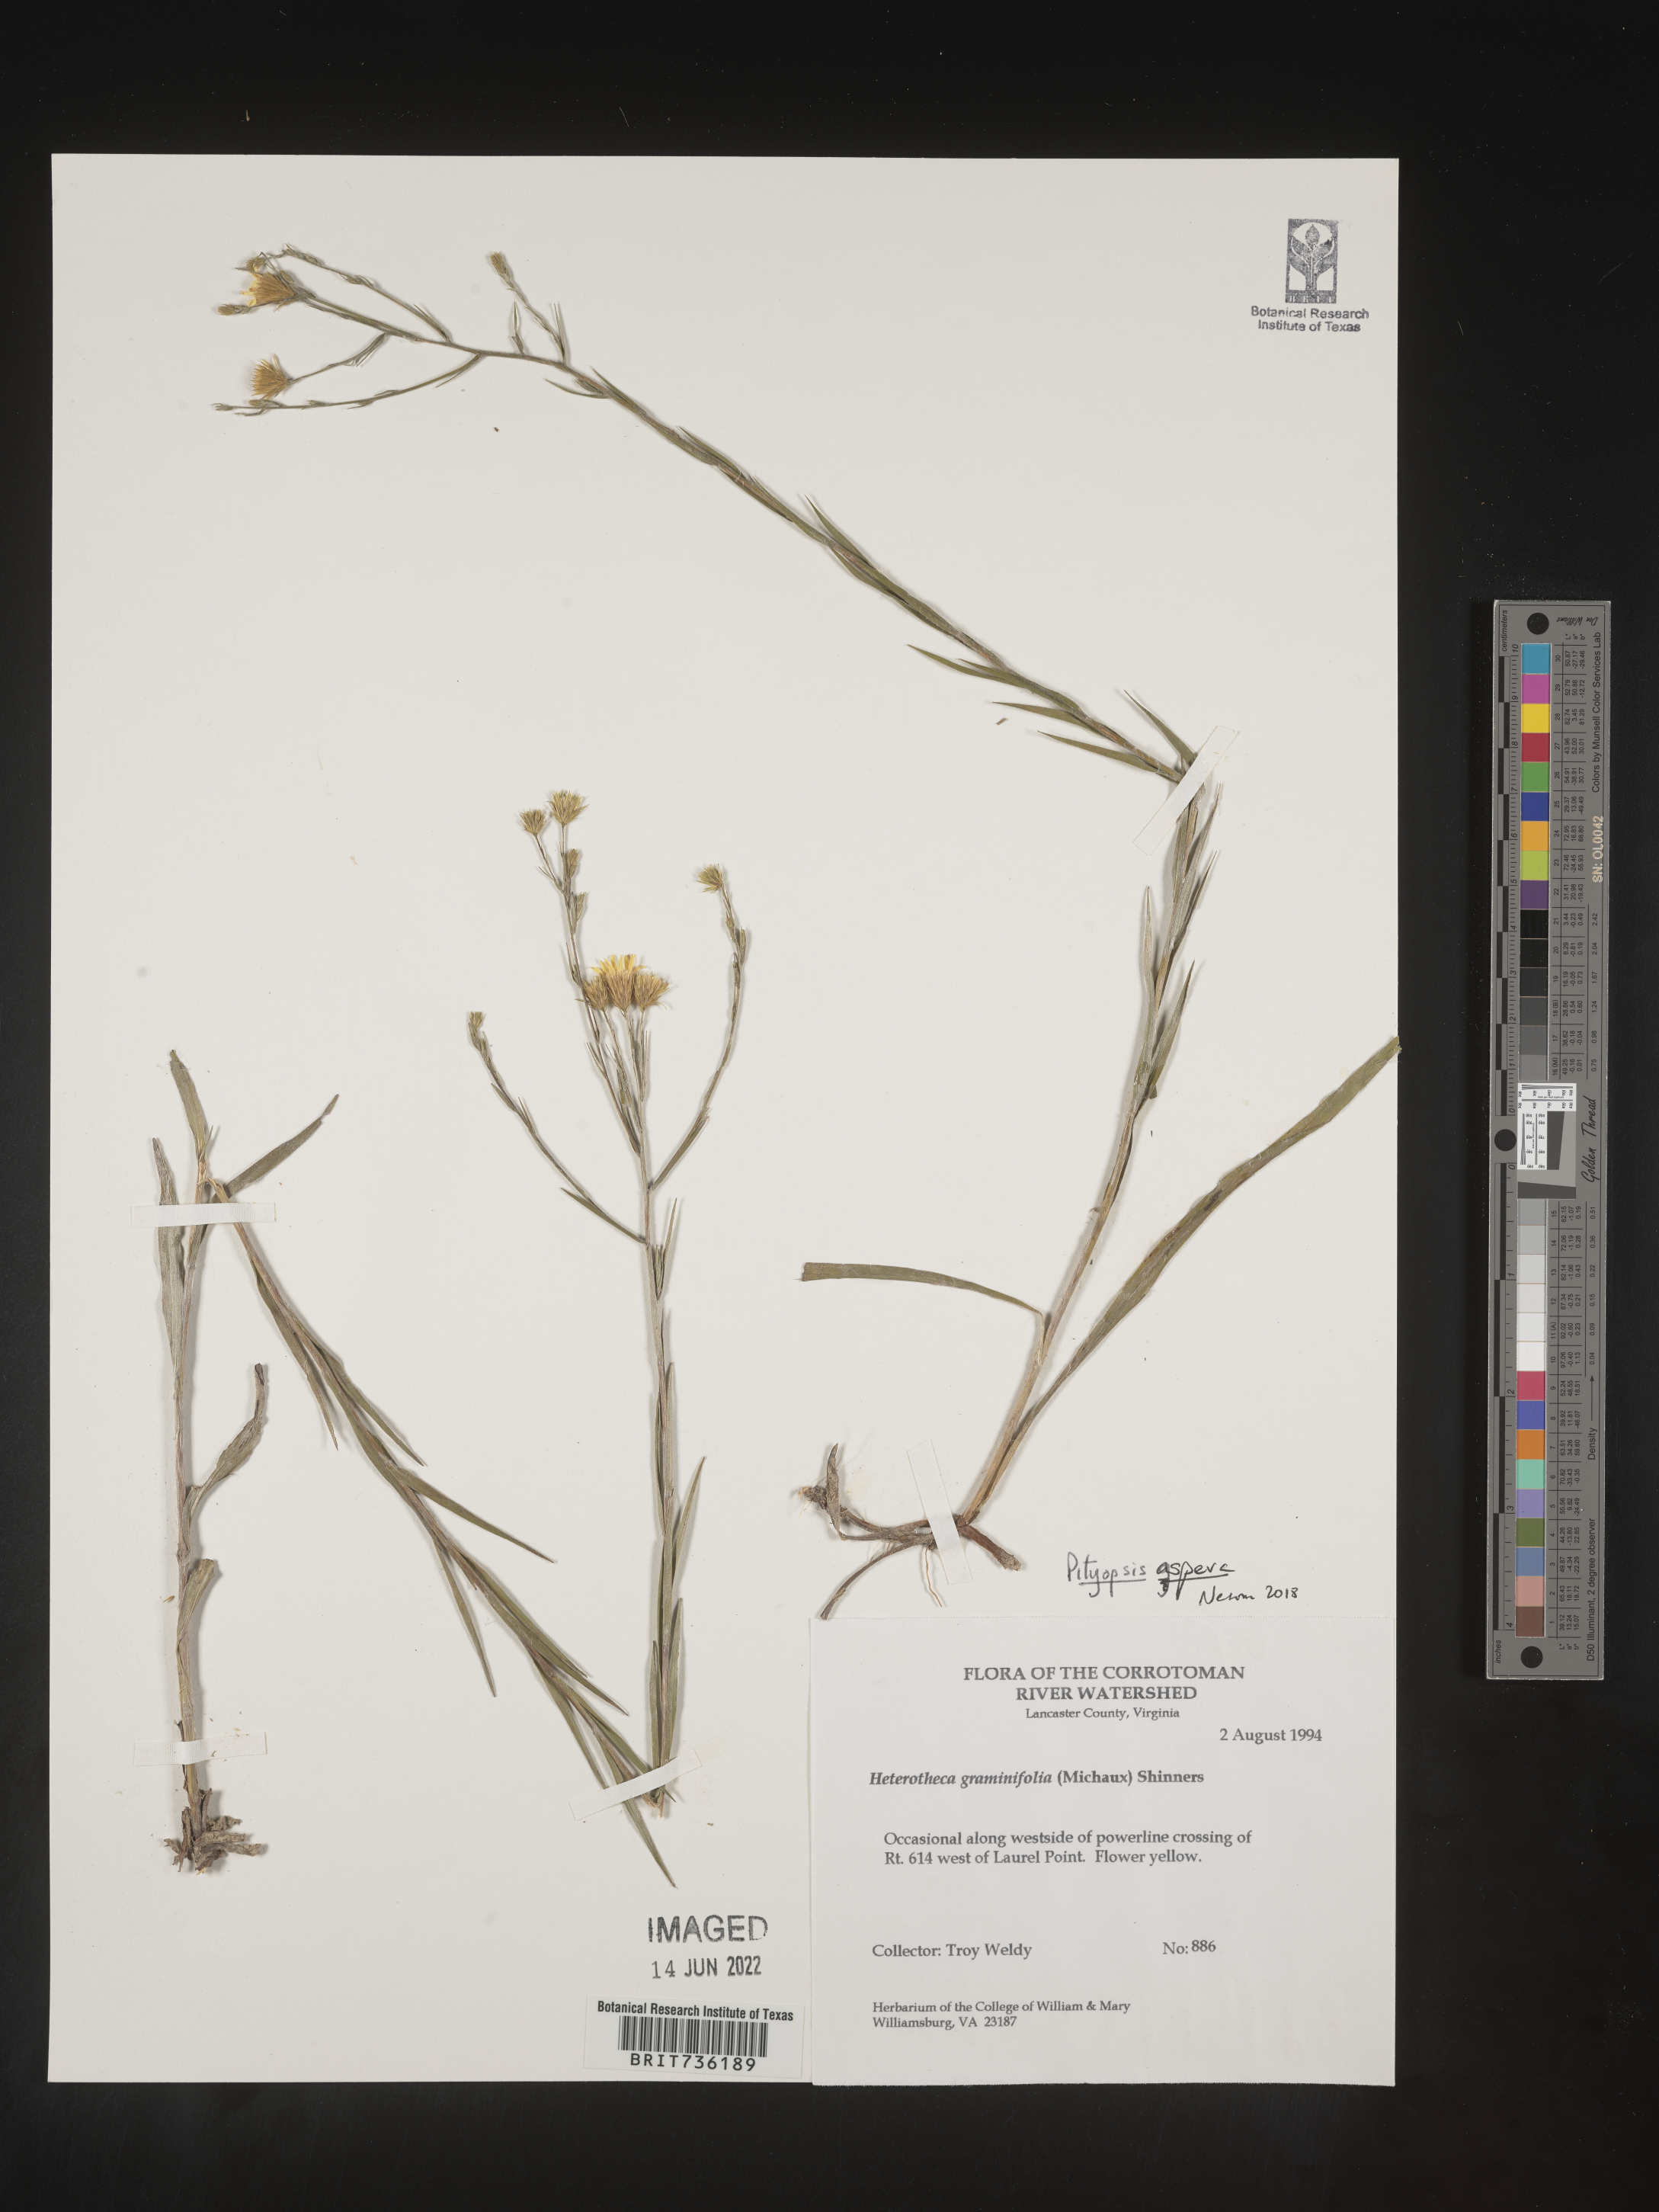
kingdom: Plantae
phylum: Tracheophyta
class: Magnoliopsida
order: Asterales
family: Asteraceae
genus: Pityopsis
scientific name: Pityopsis aspera
